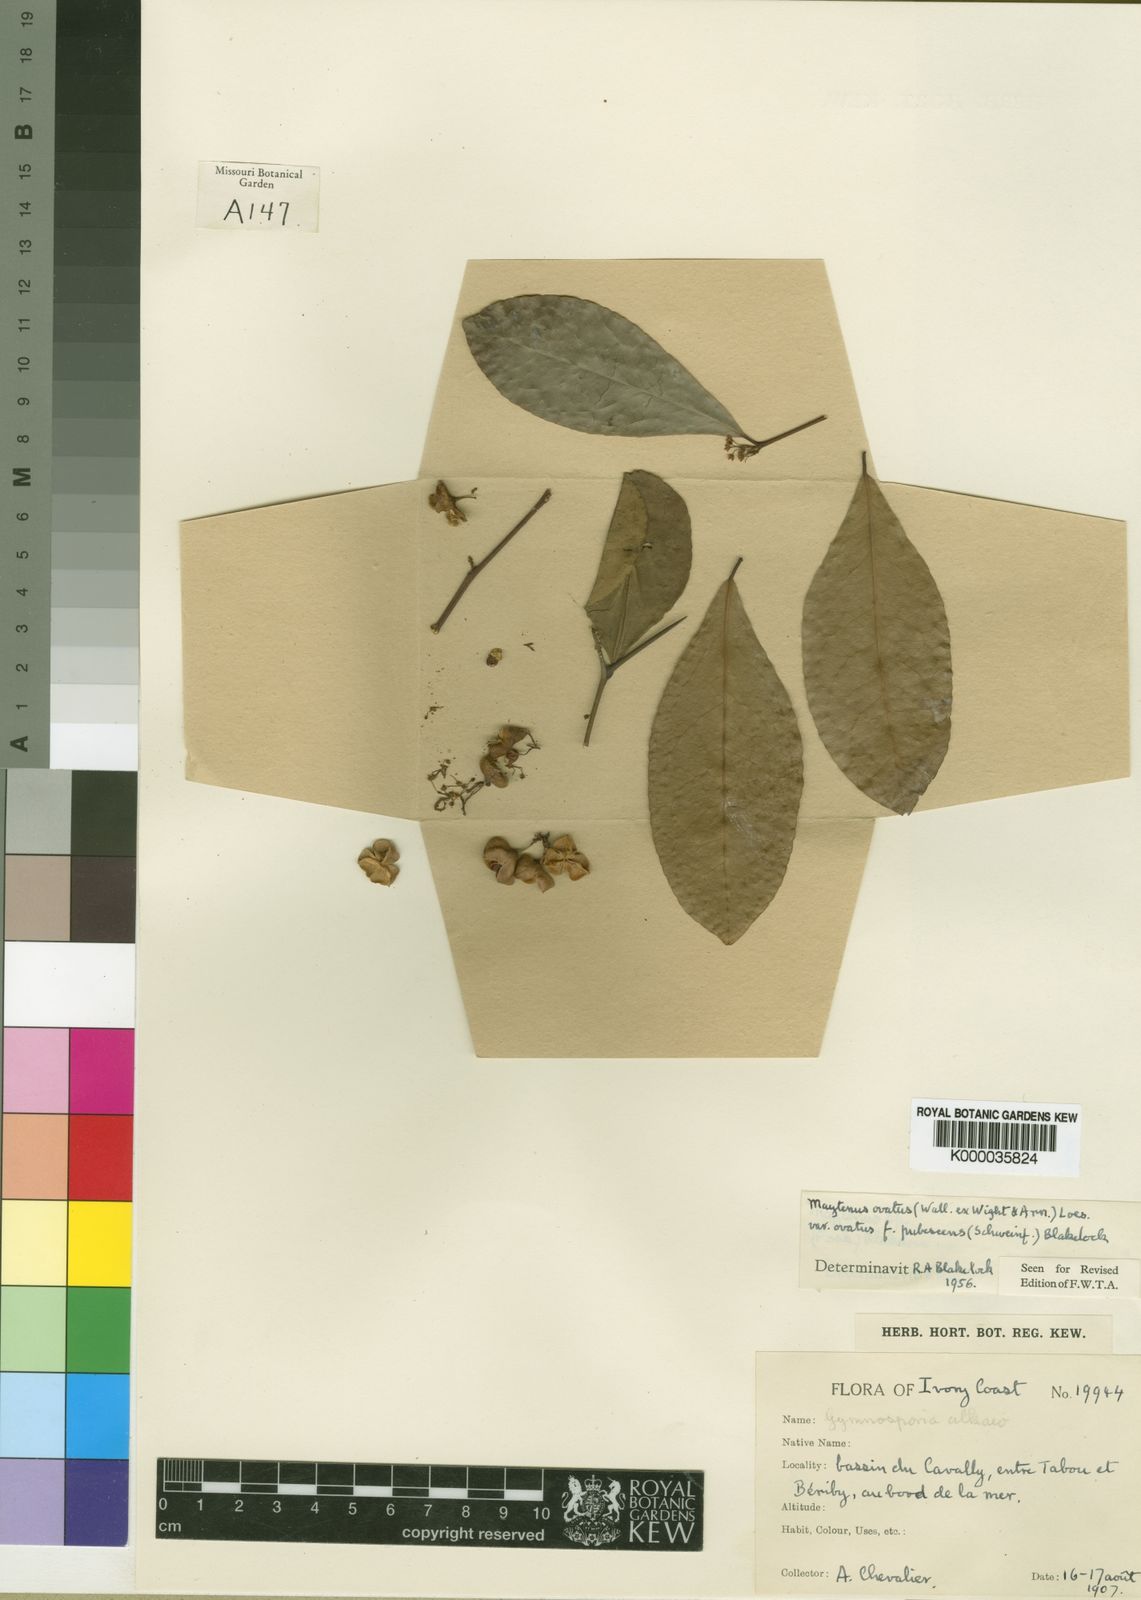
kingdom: Plantae
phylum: Tracheophyta
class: Magnoliopsida
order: Celastrales
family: Celastraceae
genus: Gymnosporia
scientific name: Gymnosporia buchananii
